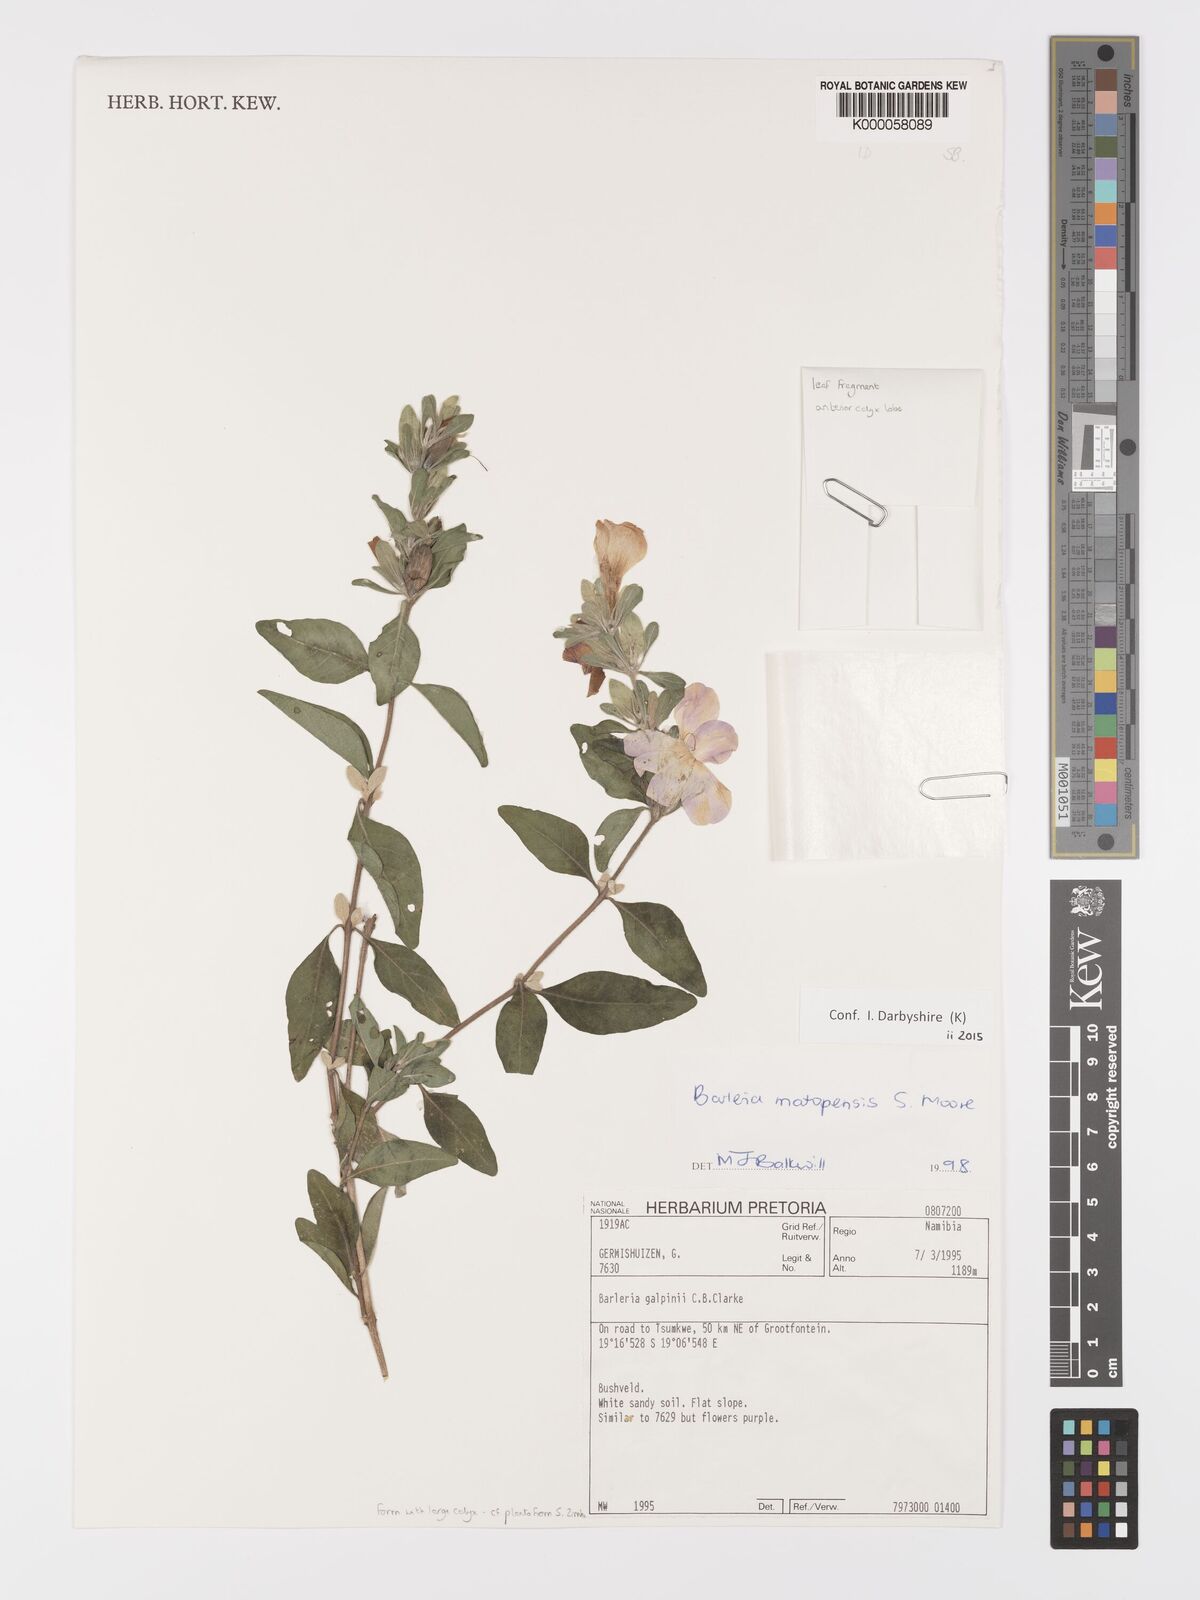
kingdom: Plantae
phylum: Tracheophyta
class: Magnoliopsida
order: Lamiales
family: Acanthaceae
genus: Barleria
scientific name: Barleria matopensis
